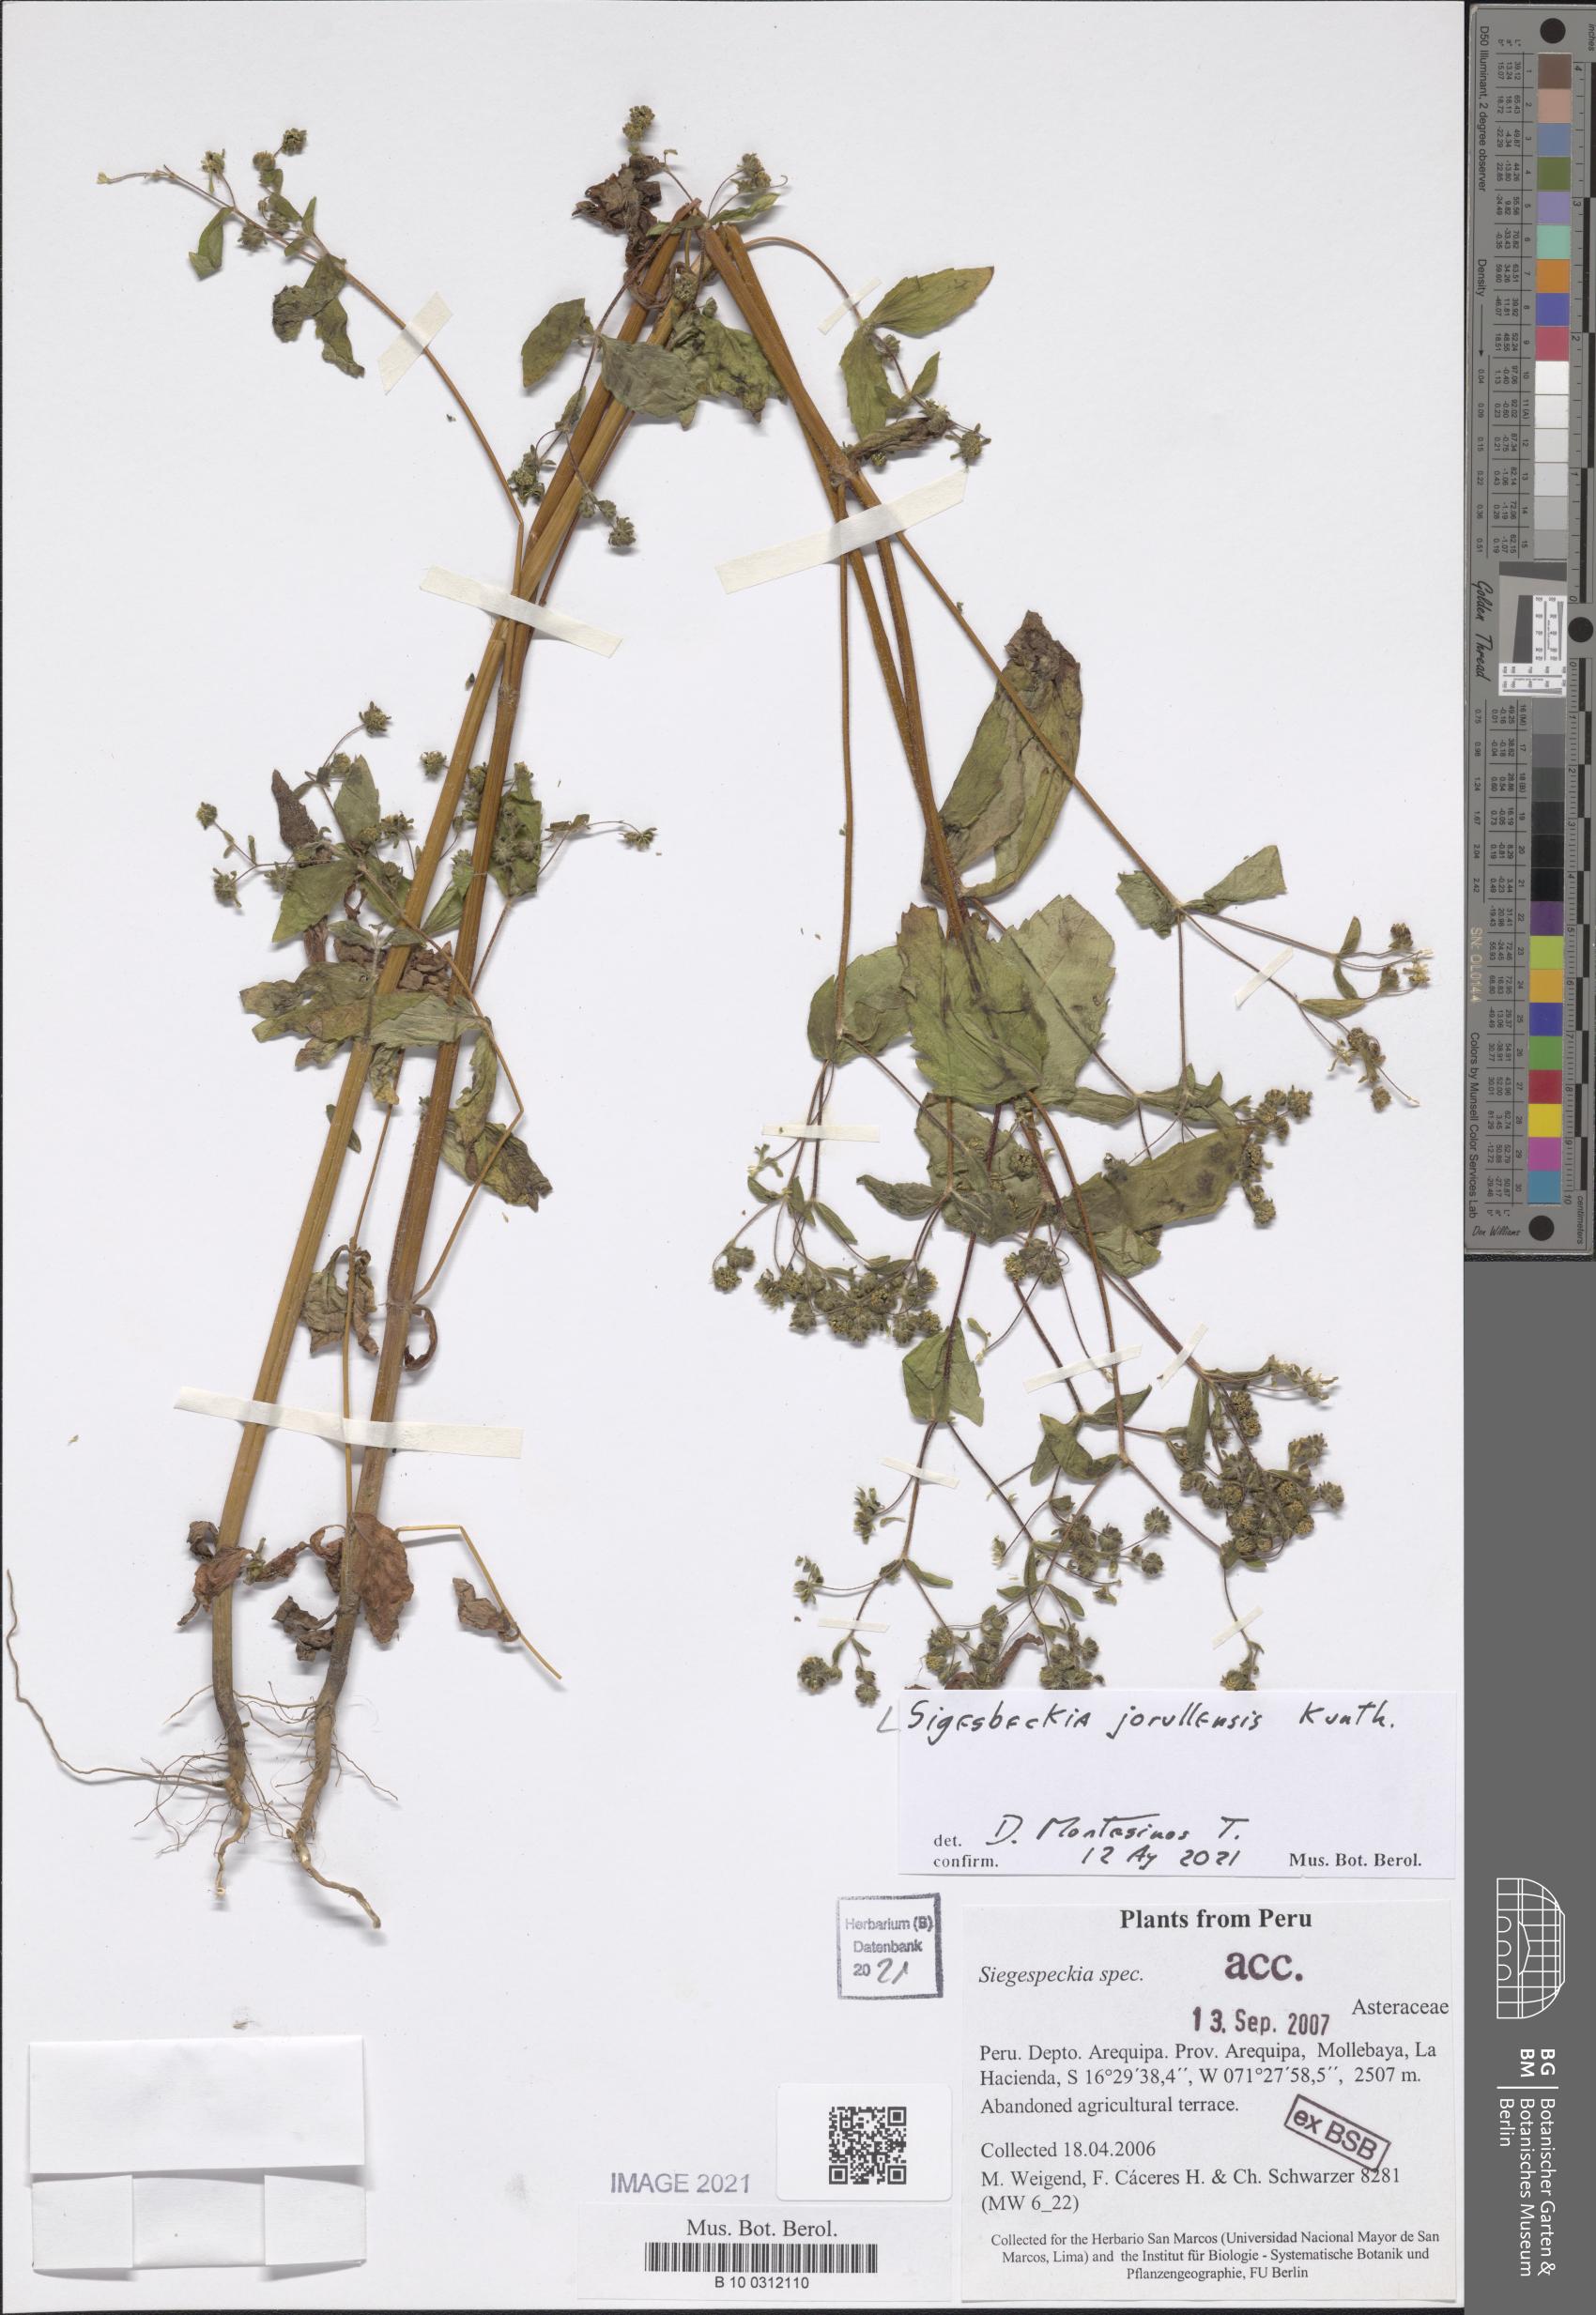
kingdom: Plantae
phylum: Tracheophyta
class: Magnoliopsida
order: Asterales
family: Asteraceae
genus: Sigesbeckia
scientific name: Sigesbeckia jorullensis
